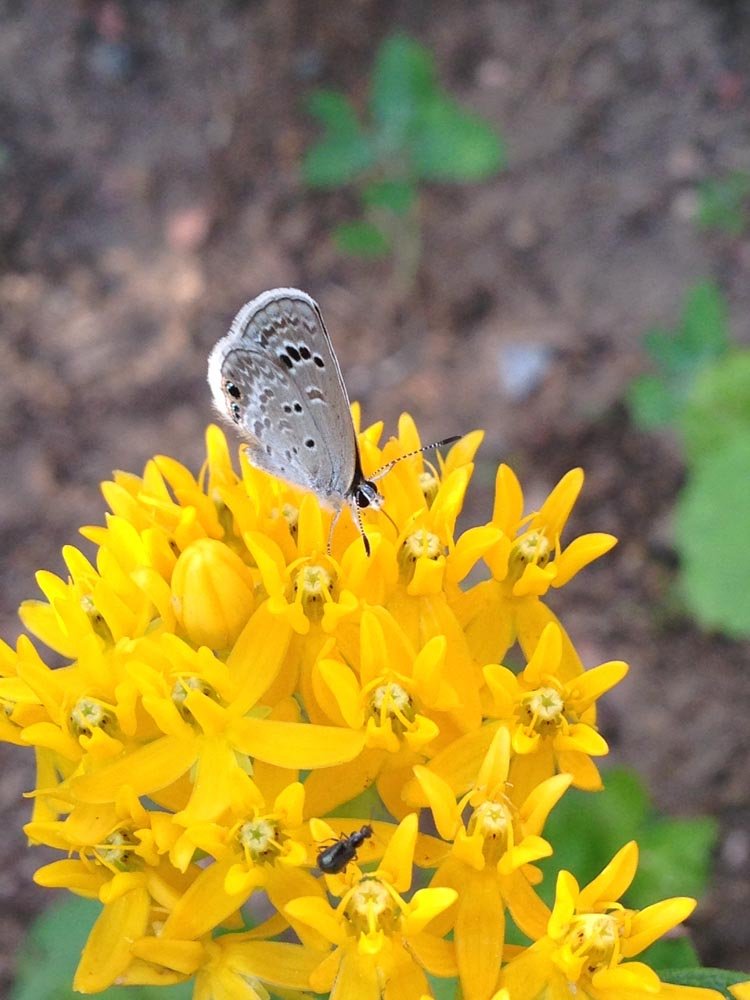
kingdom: Animalia
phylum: Arthropoda
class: Insecta
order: Lepidoptera
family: Lycaenidae
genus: Echinargus
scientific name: Echinargus isola
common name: Reakirt's Blue
